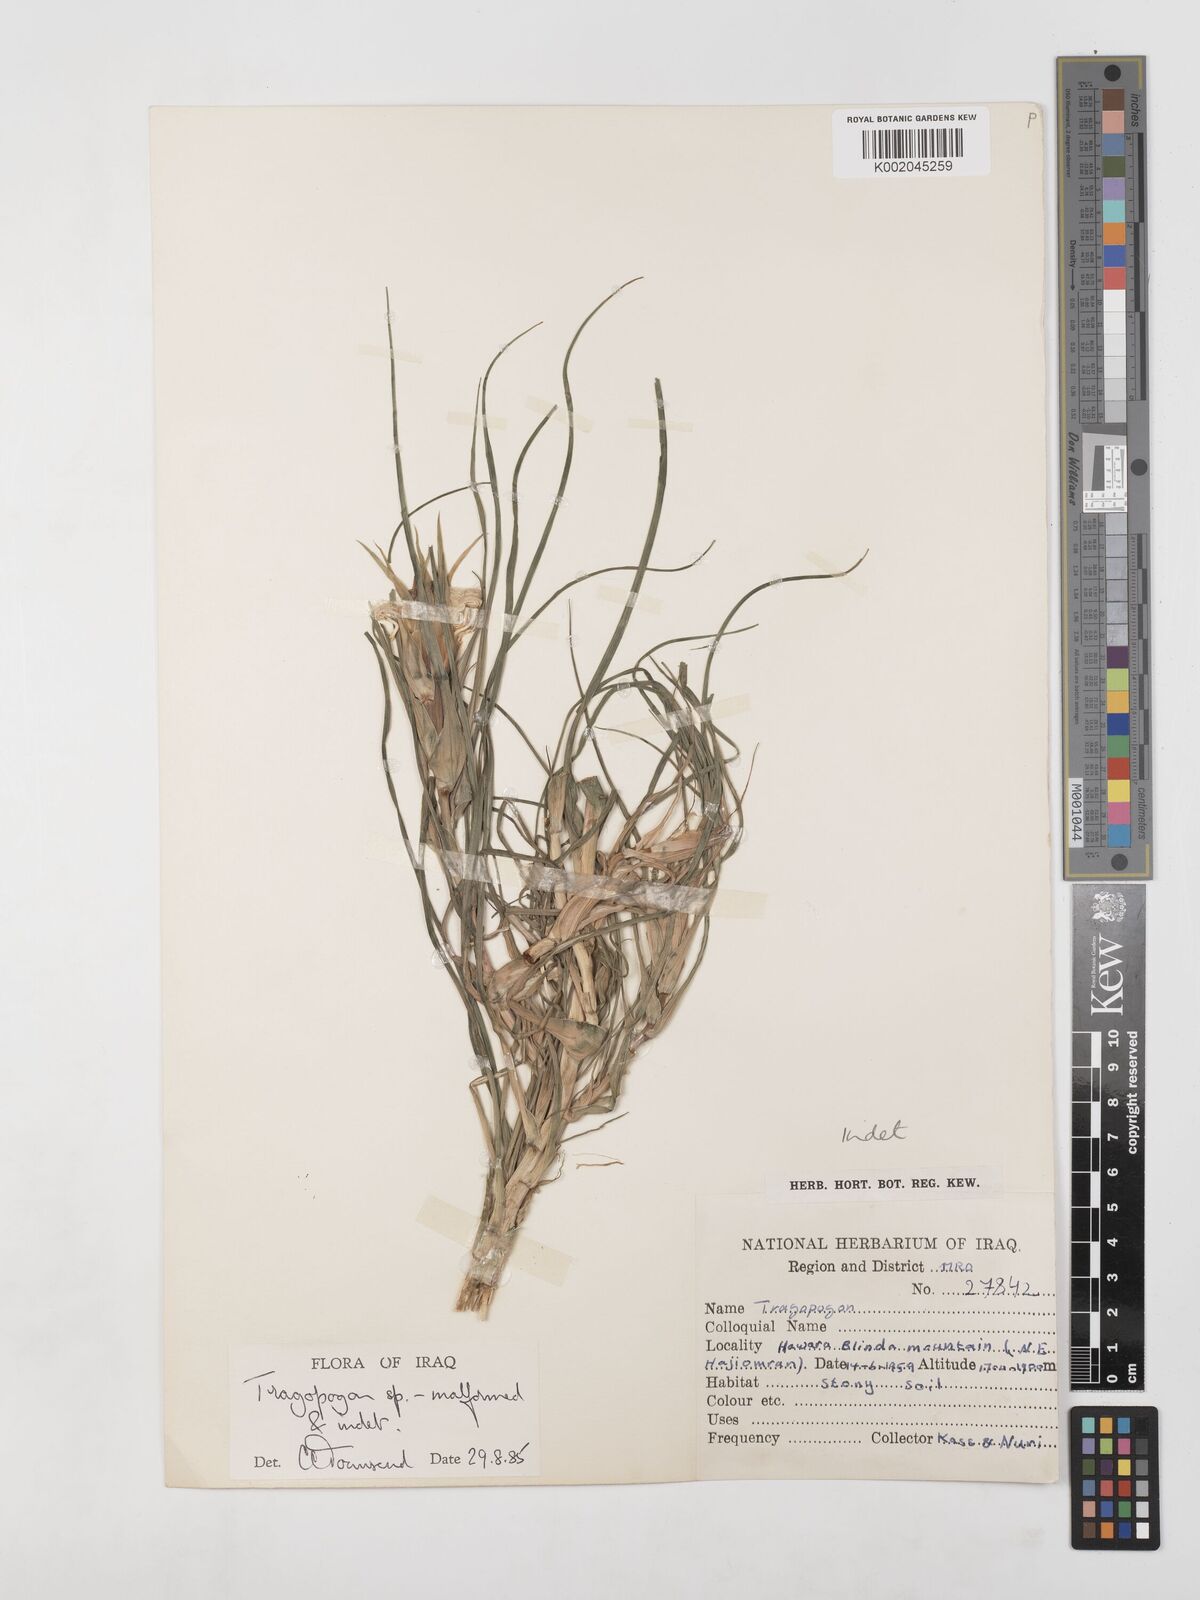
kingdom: Plantae
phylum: Tracheophyta
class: Magnoliopsida
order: Asterales
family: Asteraceae
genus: Tragopogon
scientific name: Tragopogon coelesyriacus
